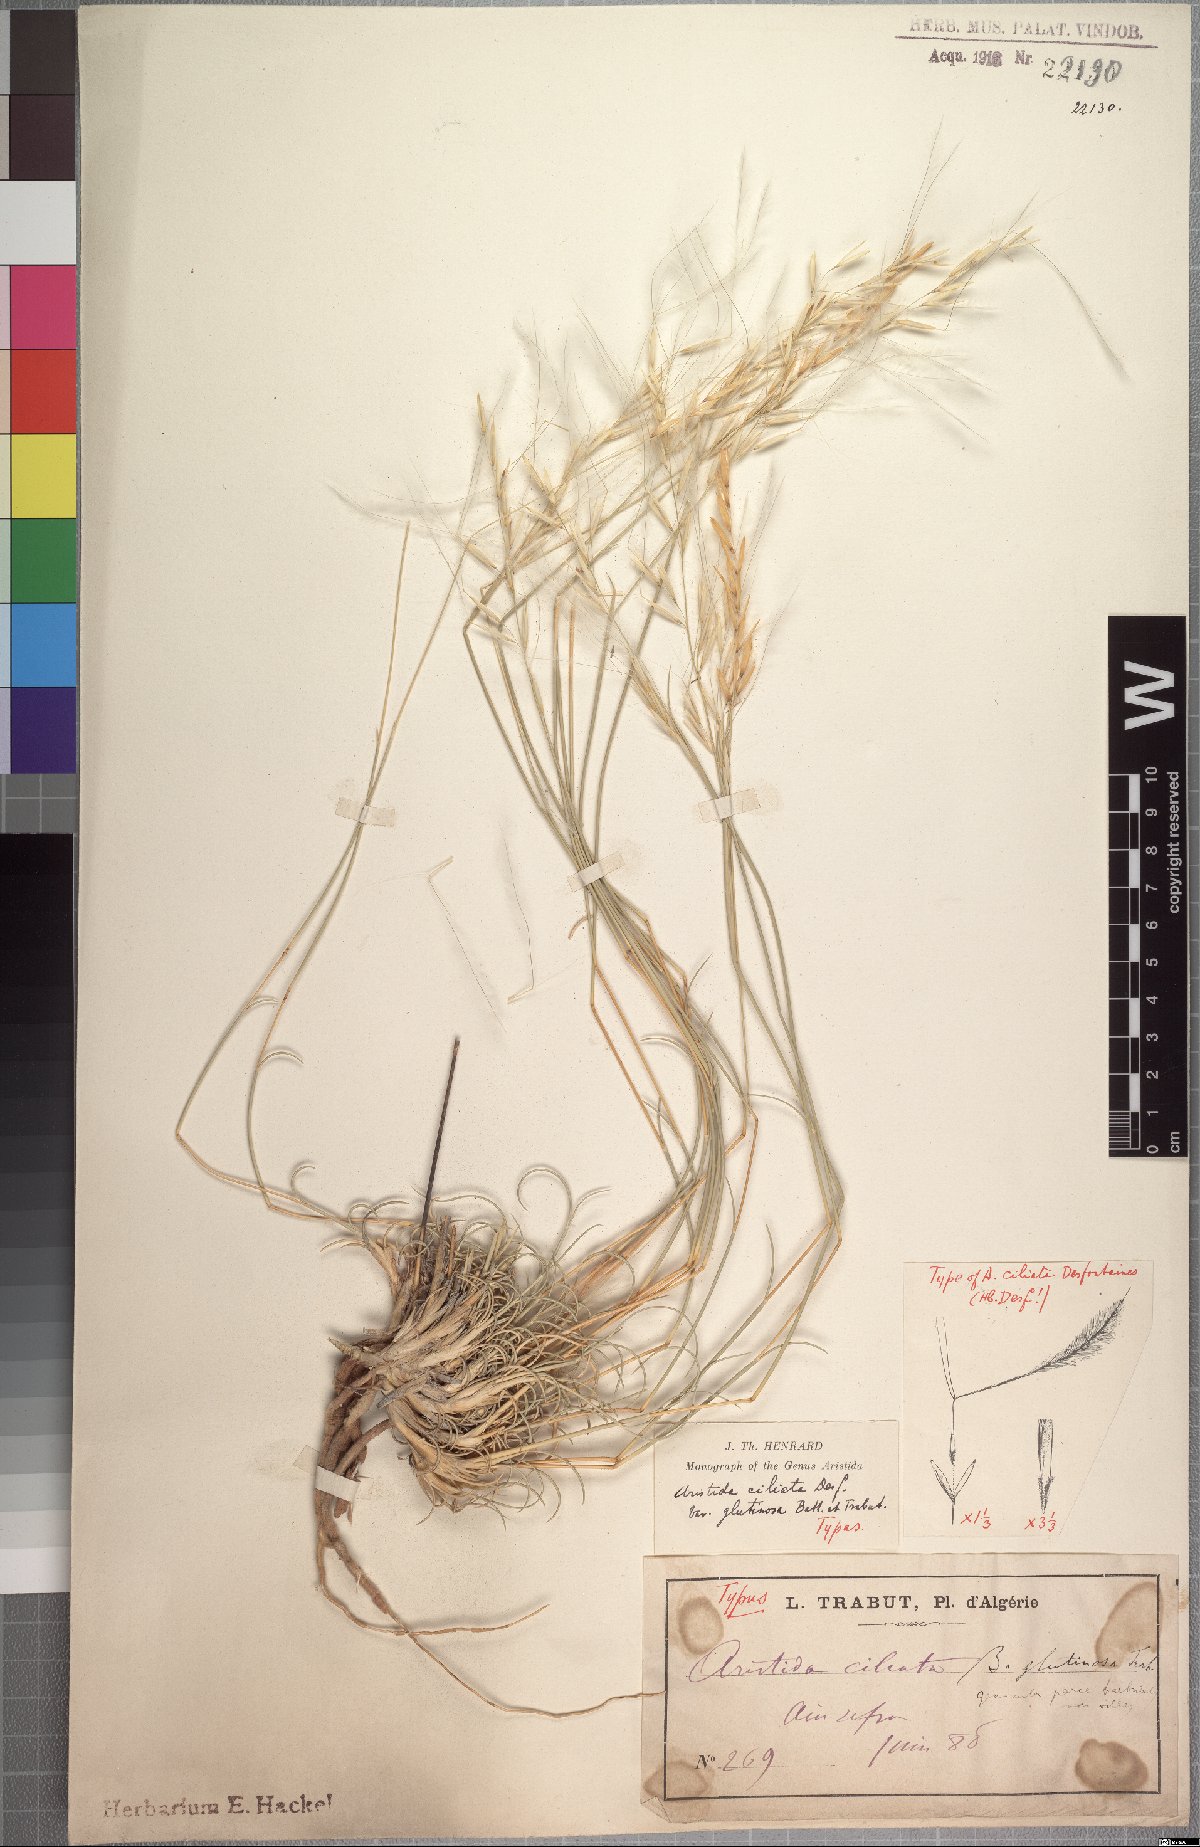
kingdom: Plantae
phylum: Tracheophyta
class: Liliopsida
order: Poales
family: Poaceae
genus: Stipagrostis
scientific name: Stipagrostis
